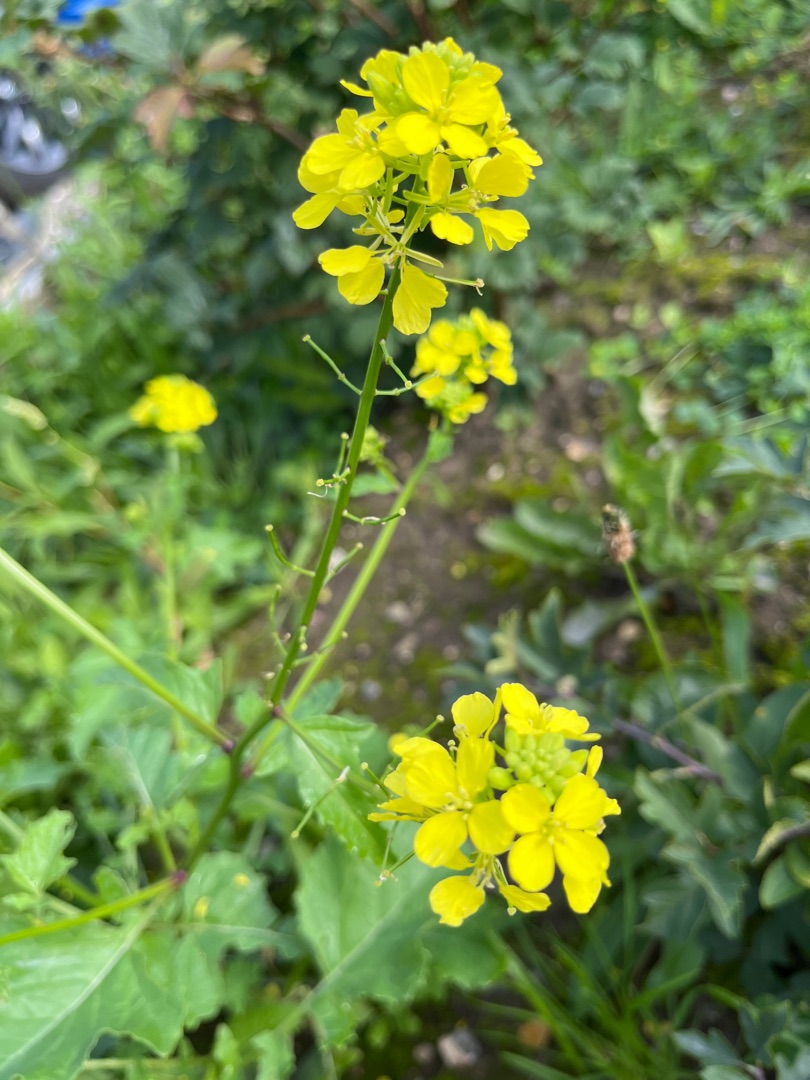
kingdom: Plantae
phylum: Tracheophyta
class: Magnoliopsida
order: Brassicales
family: Brassicaceae
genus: Sinapis
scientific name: Sinapis arvensis
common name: Ager-sennep
